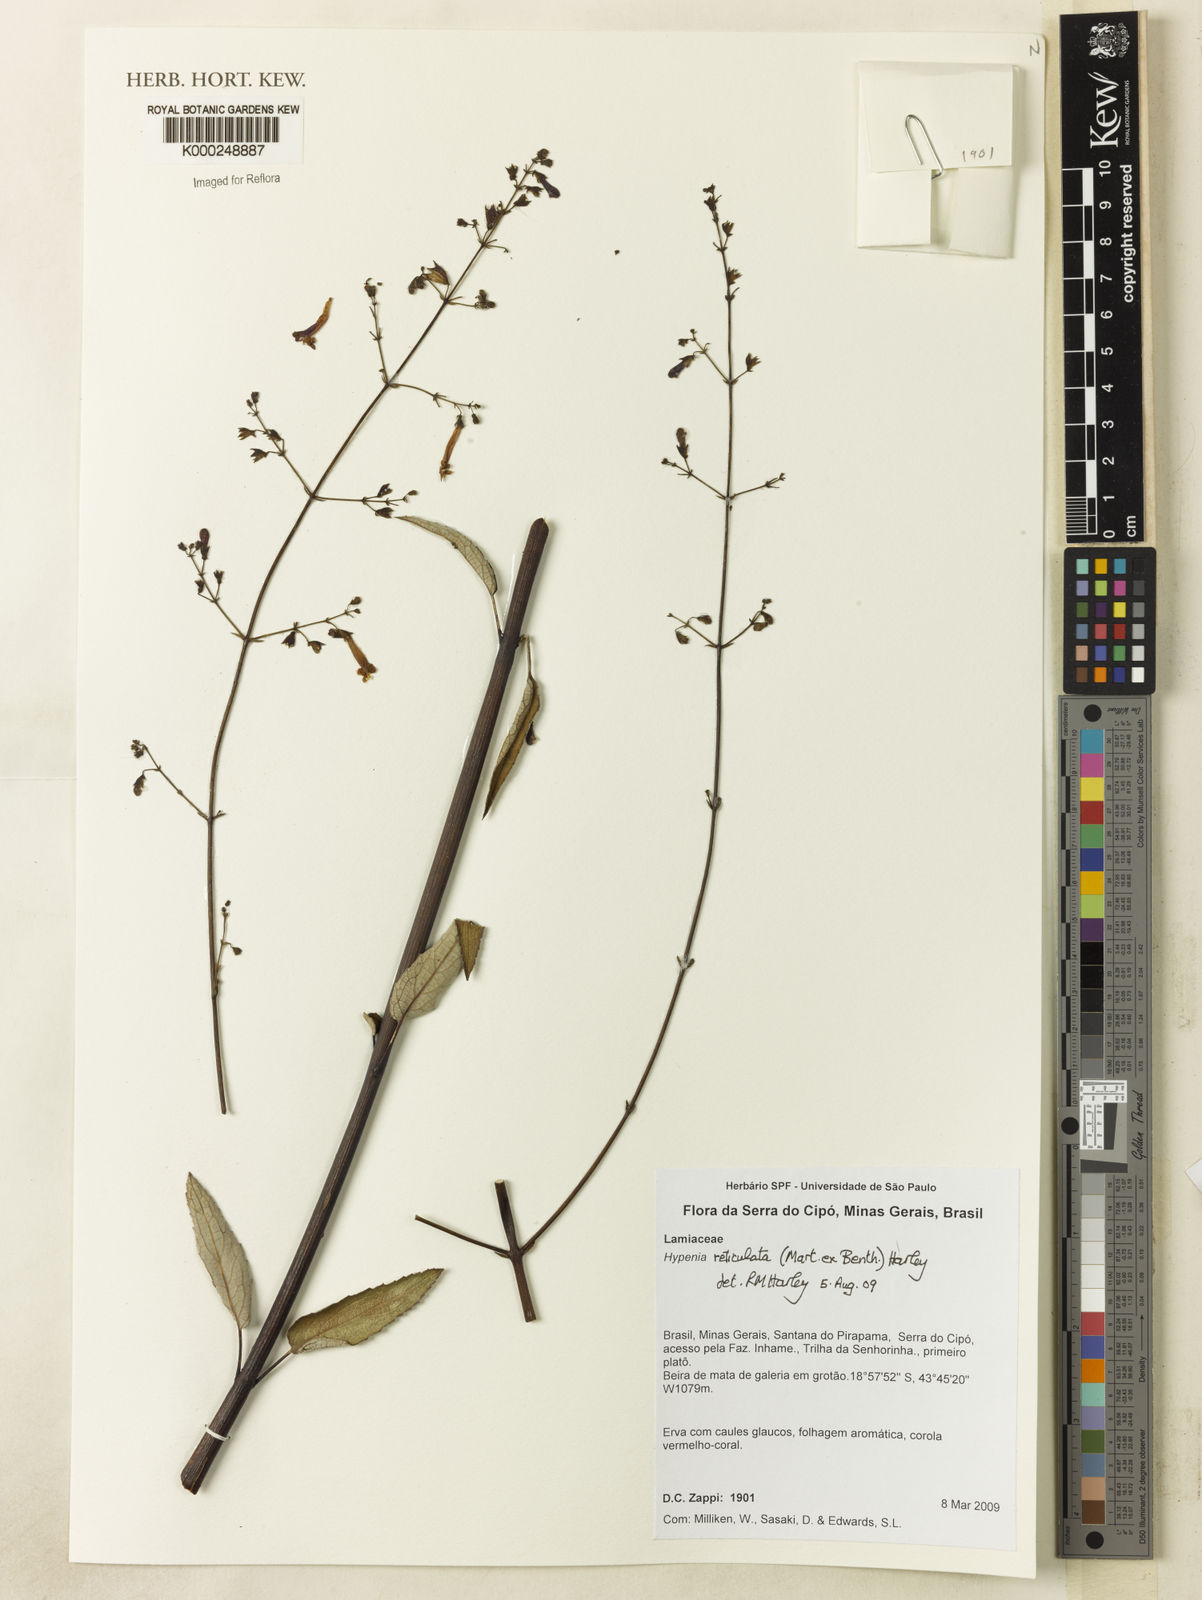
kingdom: Plantae
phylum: Tracheophyta
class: Magnoliopsida
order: Lamiales
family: Lamiaceae
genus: Hypenia
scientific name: Hypenia reticulata
